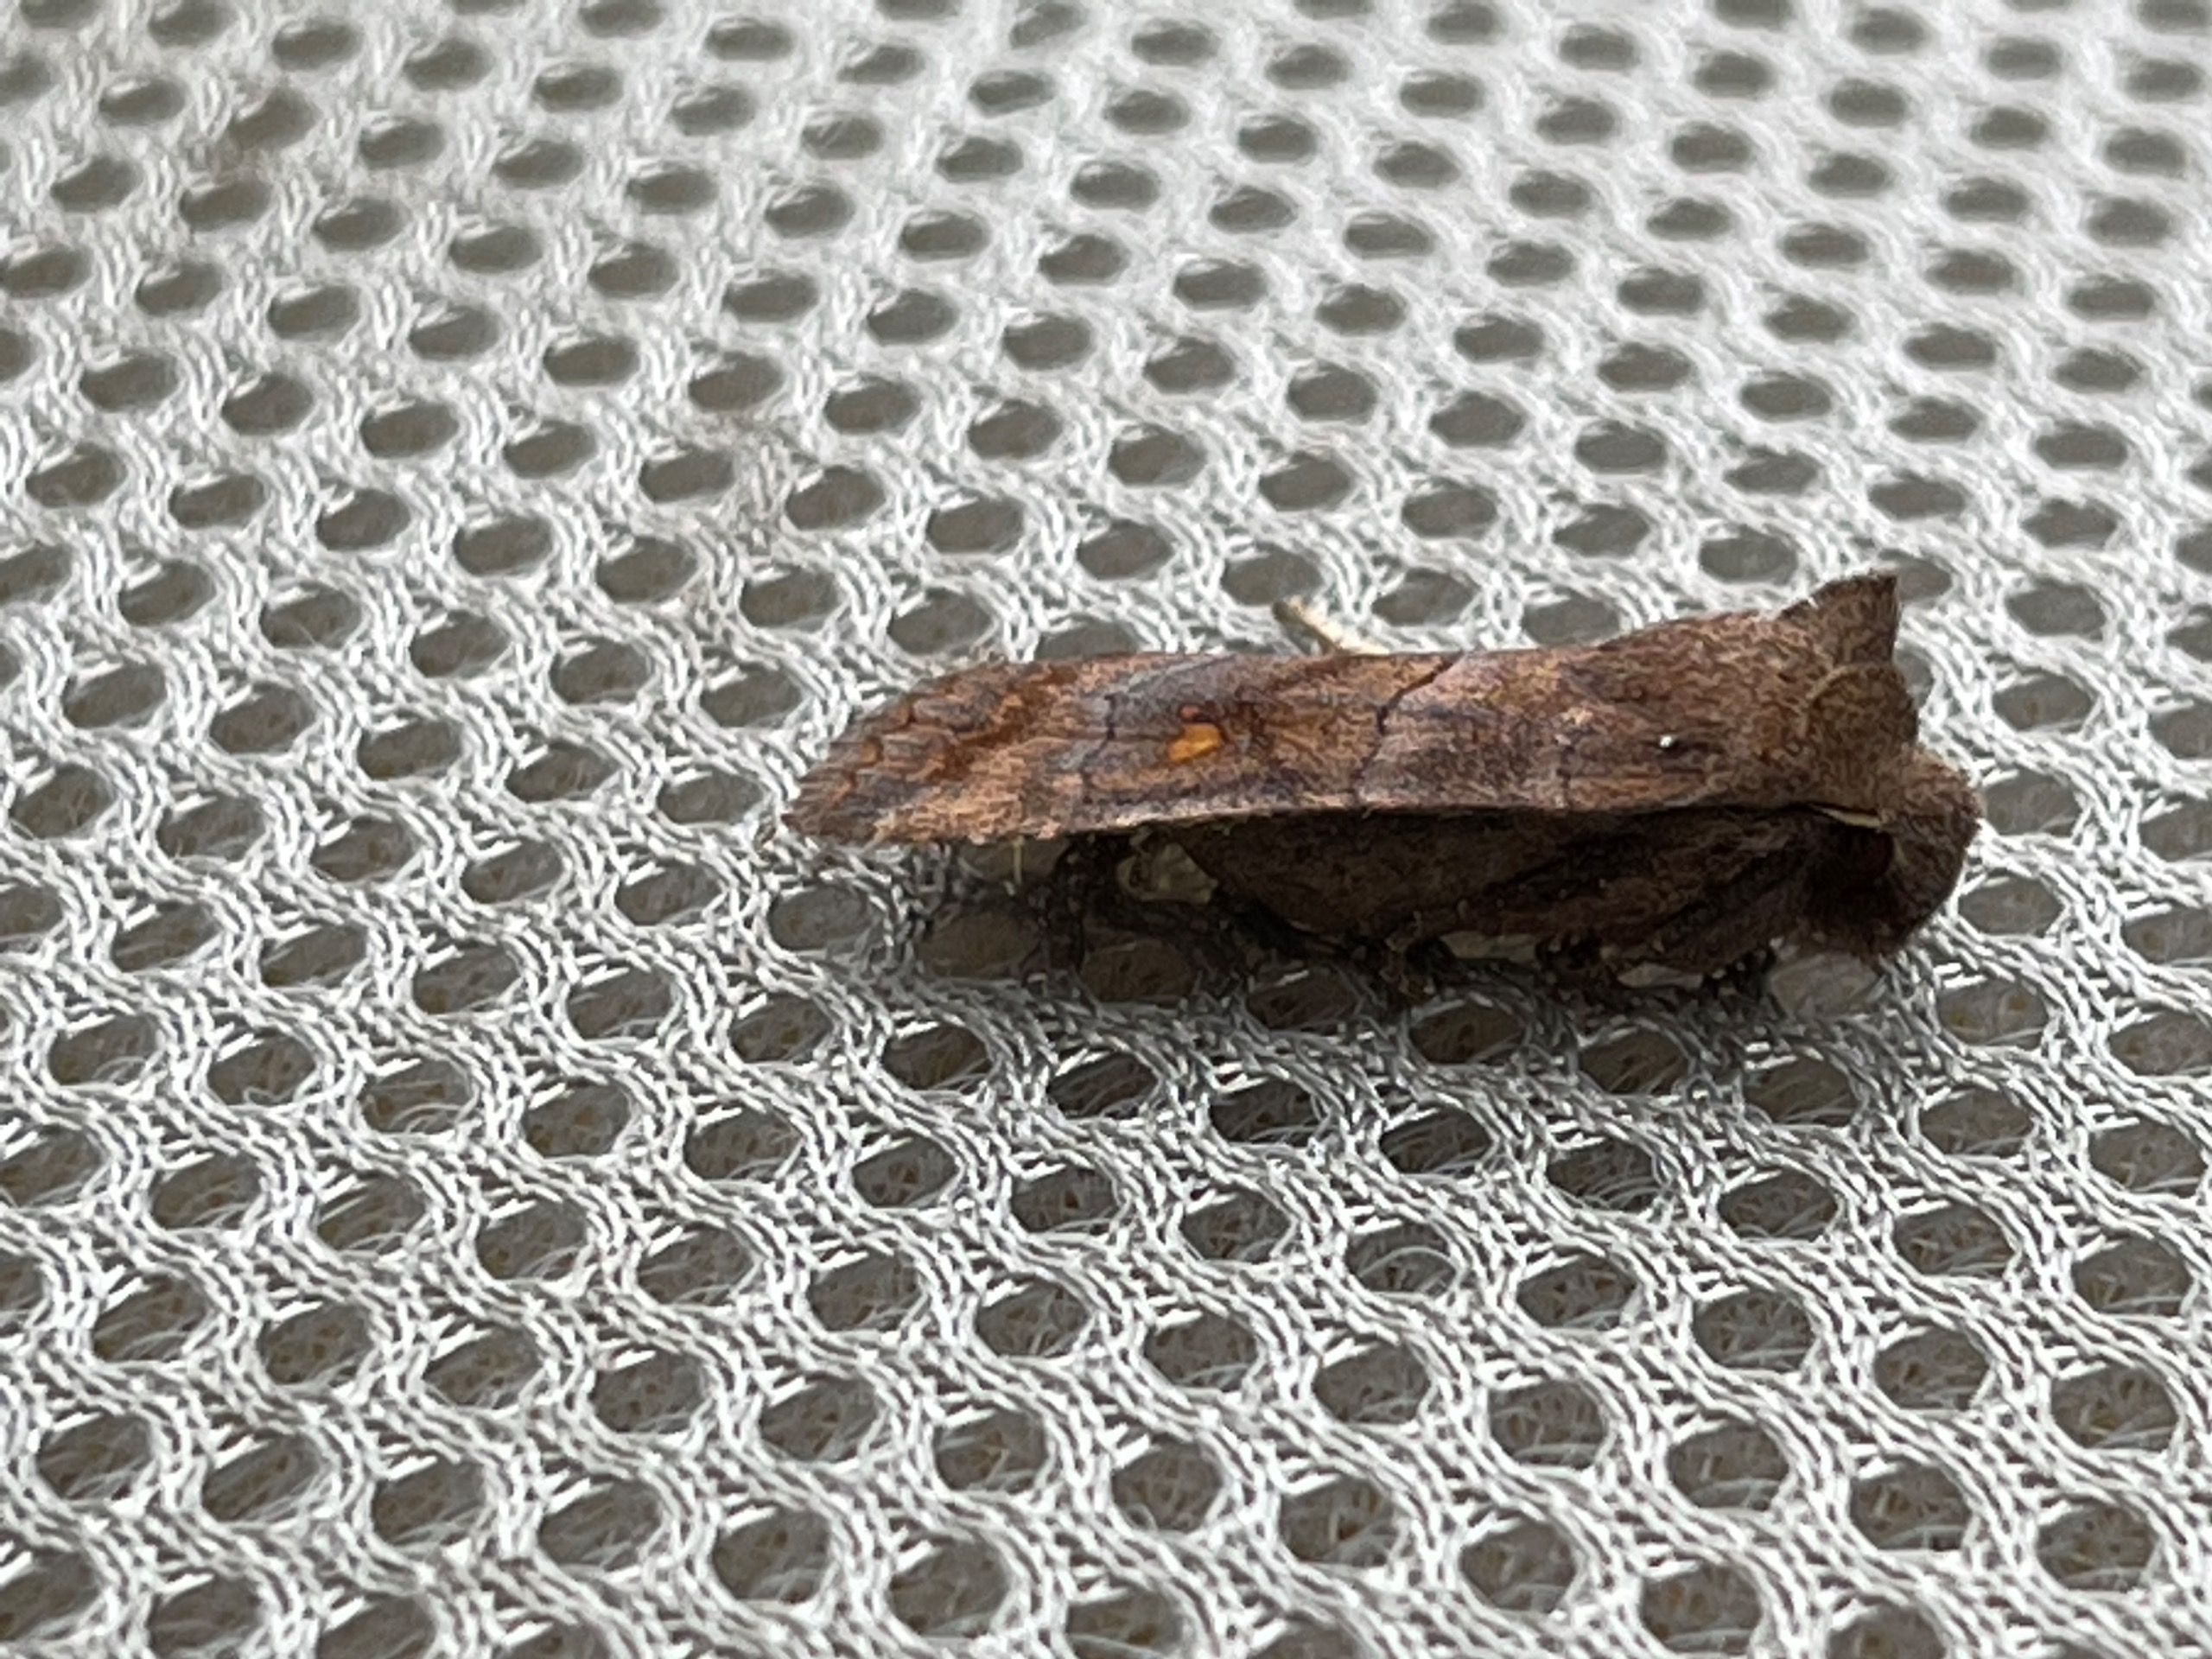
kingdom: Animalia
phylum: Arthropoda
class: Insecta
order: Lepidoptera
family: Noctuidae
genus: Eupsilia
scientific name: Eupsilia transversa
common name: Satellitugle
